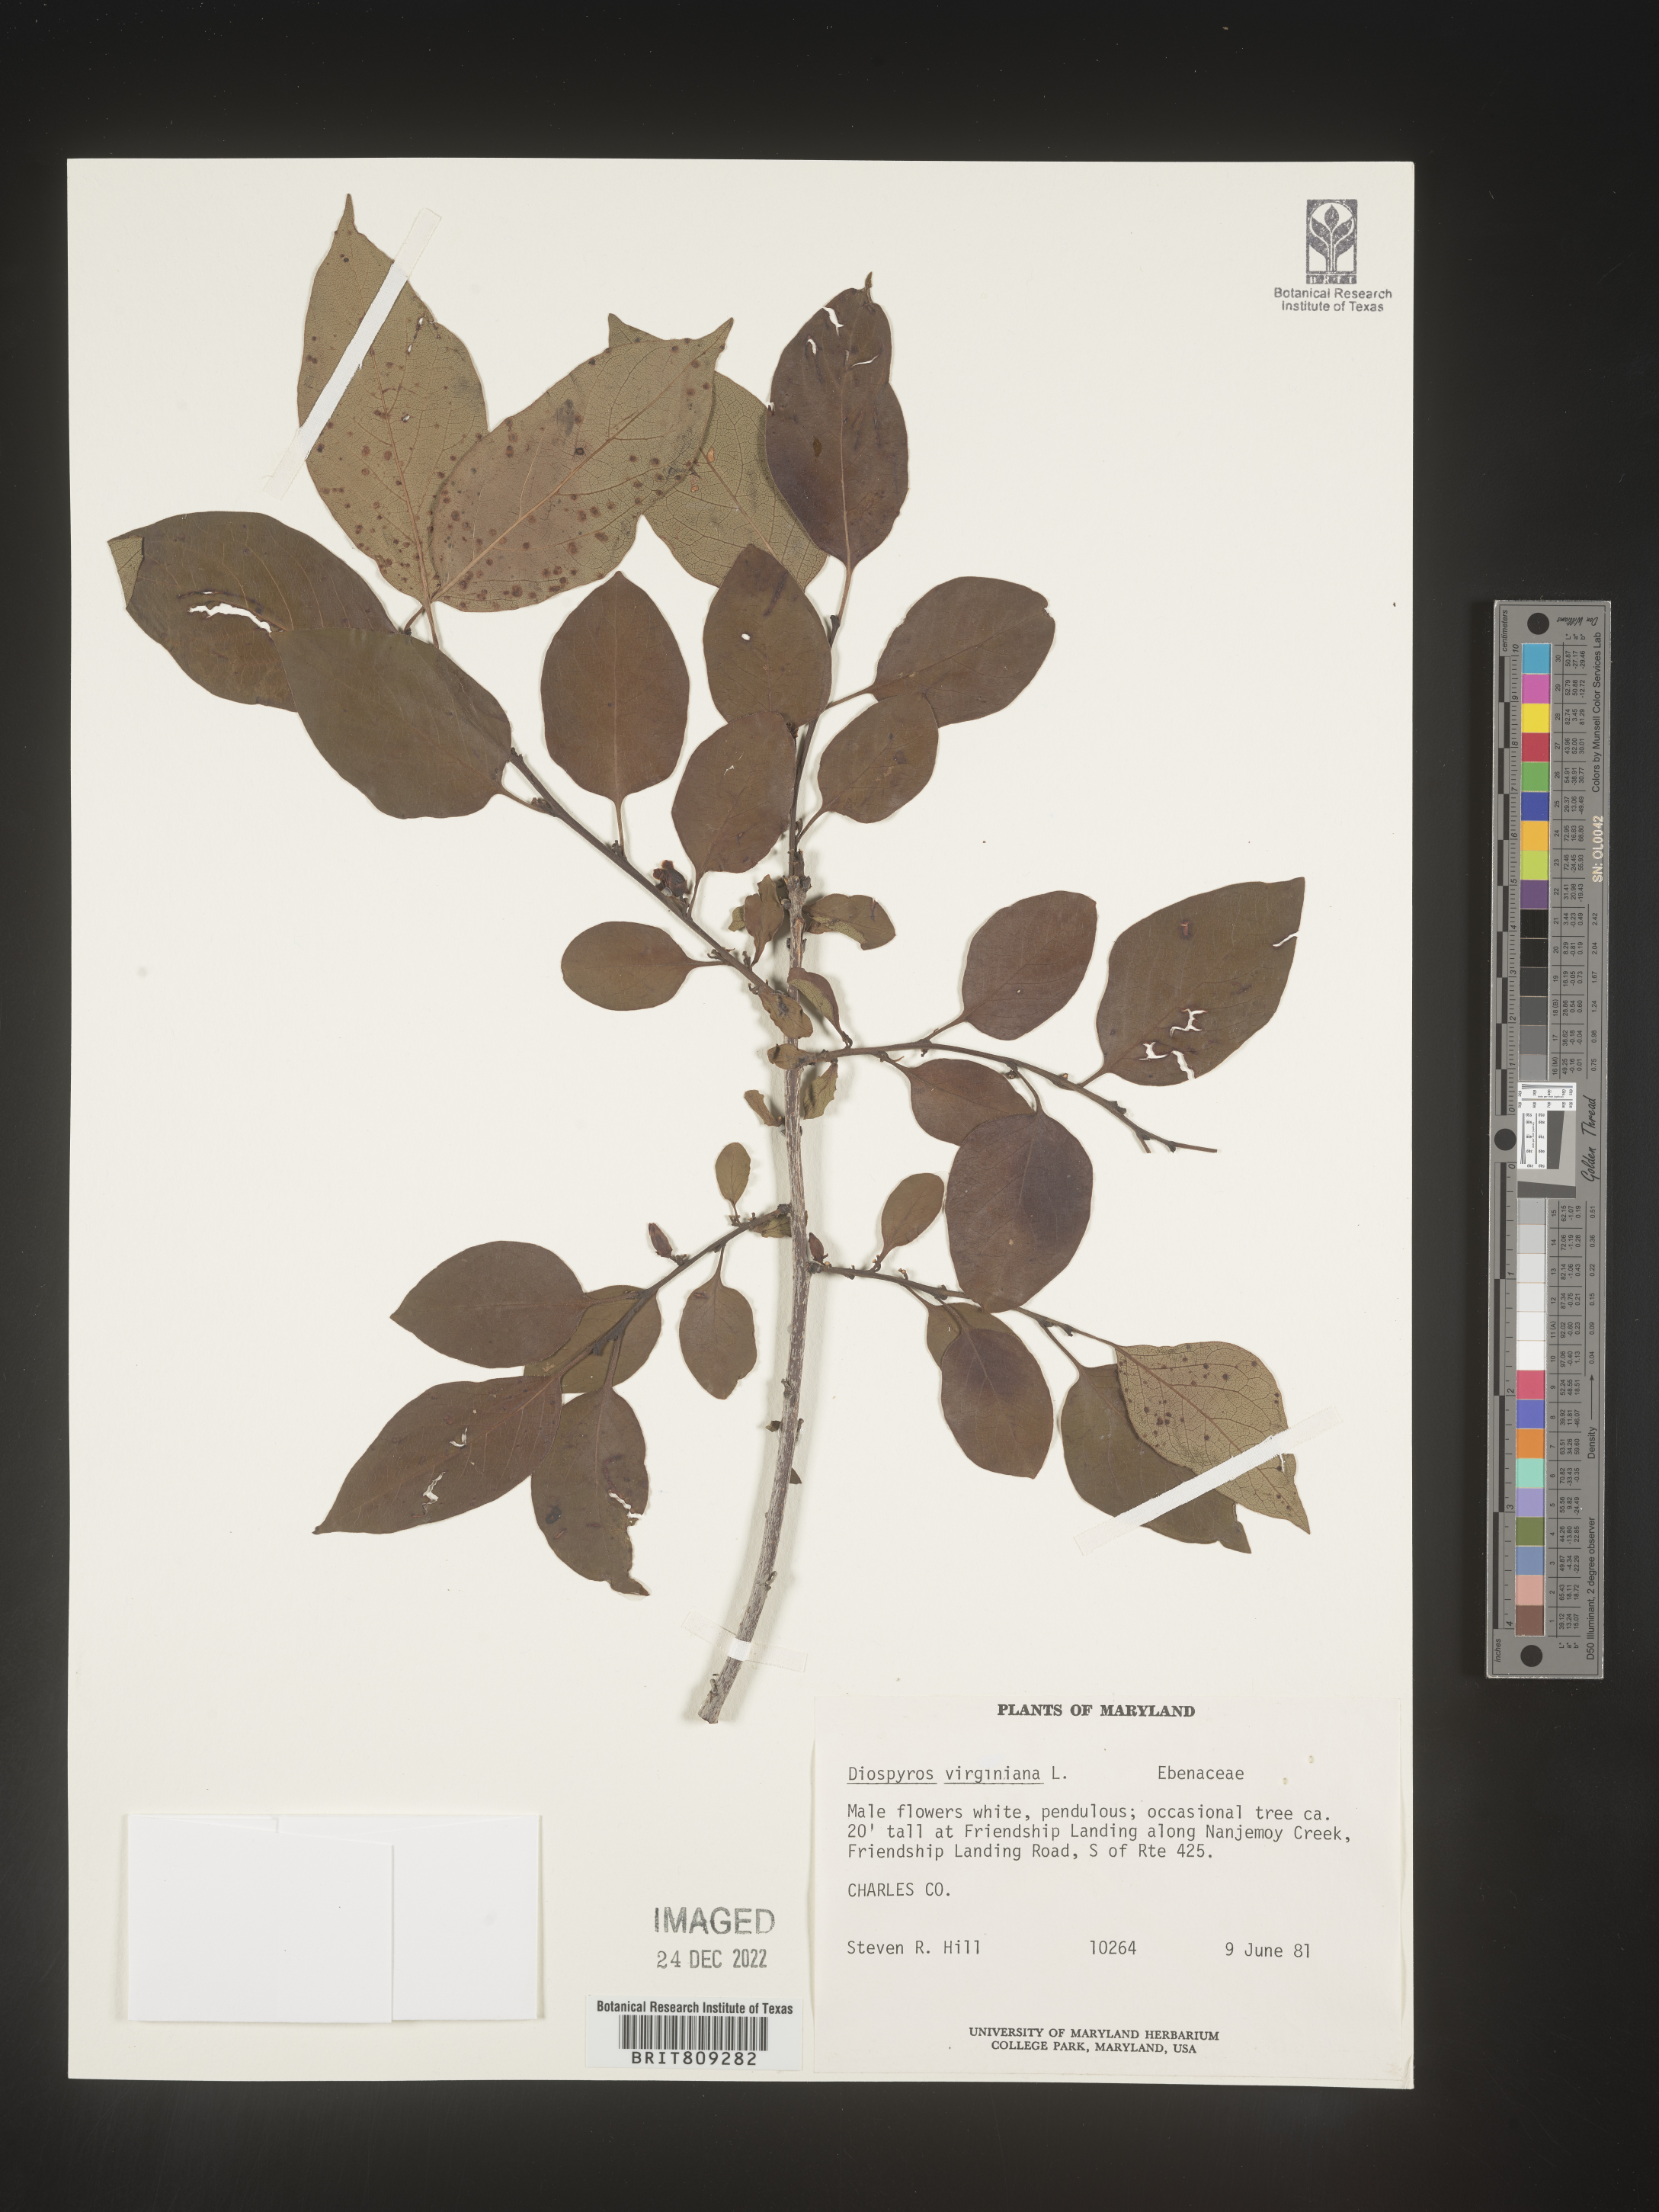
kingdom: Plantae
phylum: Tracheophyta
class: Magnoliopsida
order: Ericales
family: Ebenaceae
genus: Diospyros
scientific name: Diospyros virginiana
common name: Persimmon
